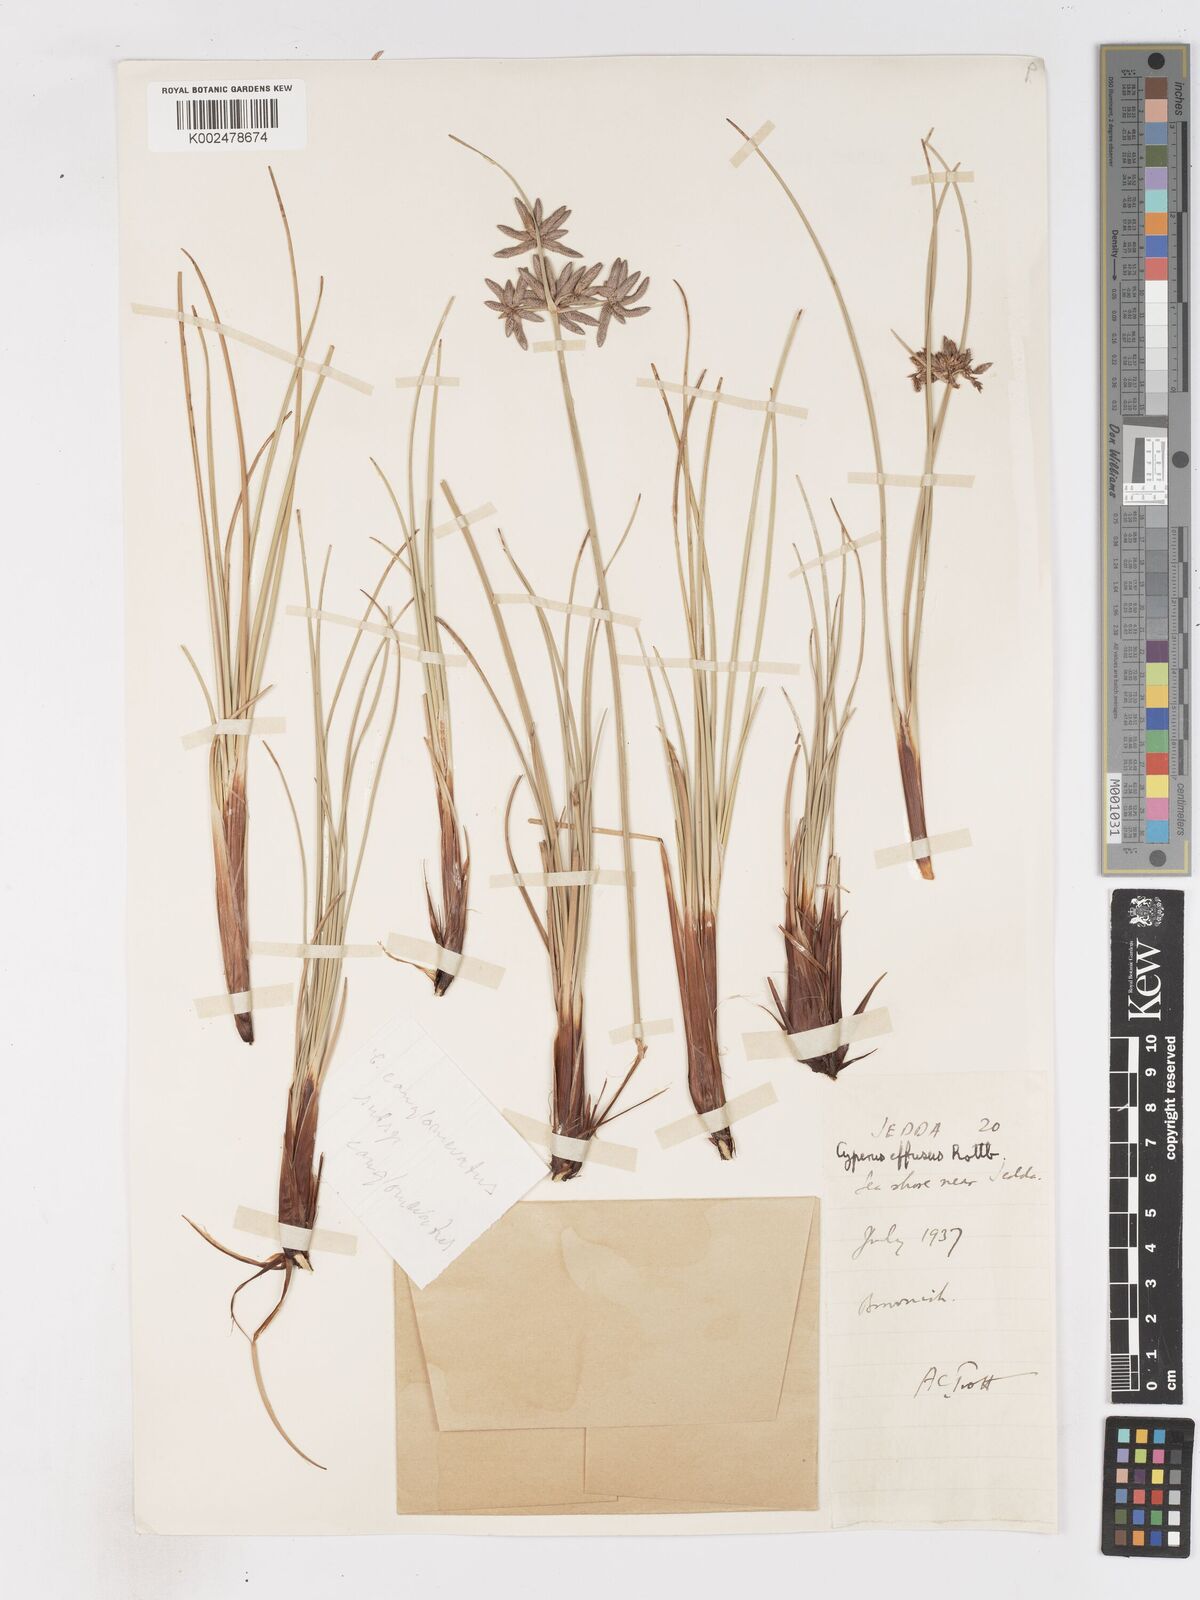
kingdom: Plantae
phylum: Tracheophyta
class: Liliopsida
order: Poales
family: Cyperaceae
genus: Cyperus
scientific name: Cyperus conglomeratus
